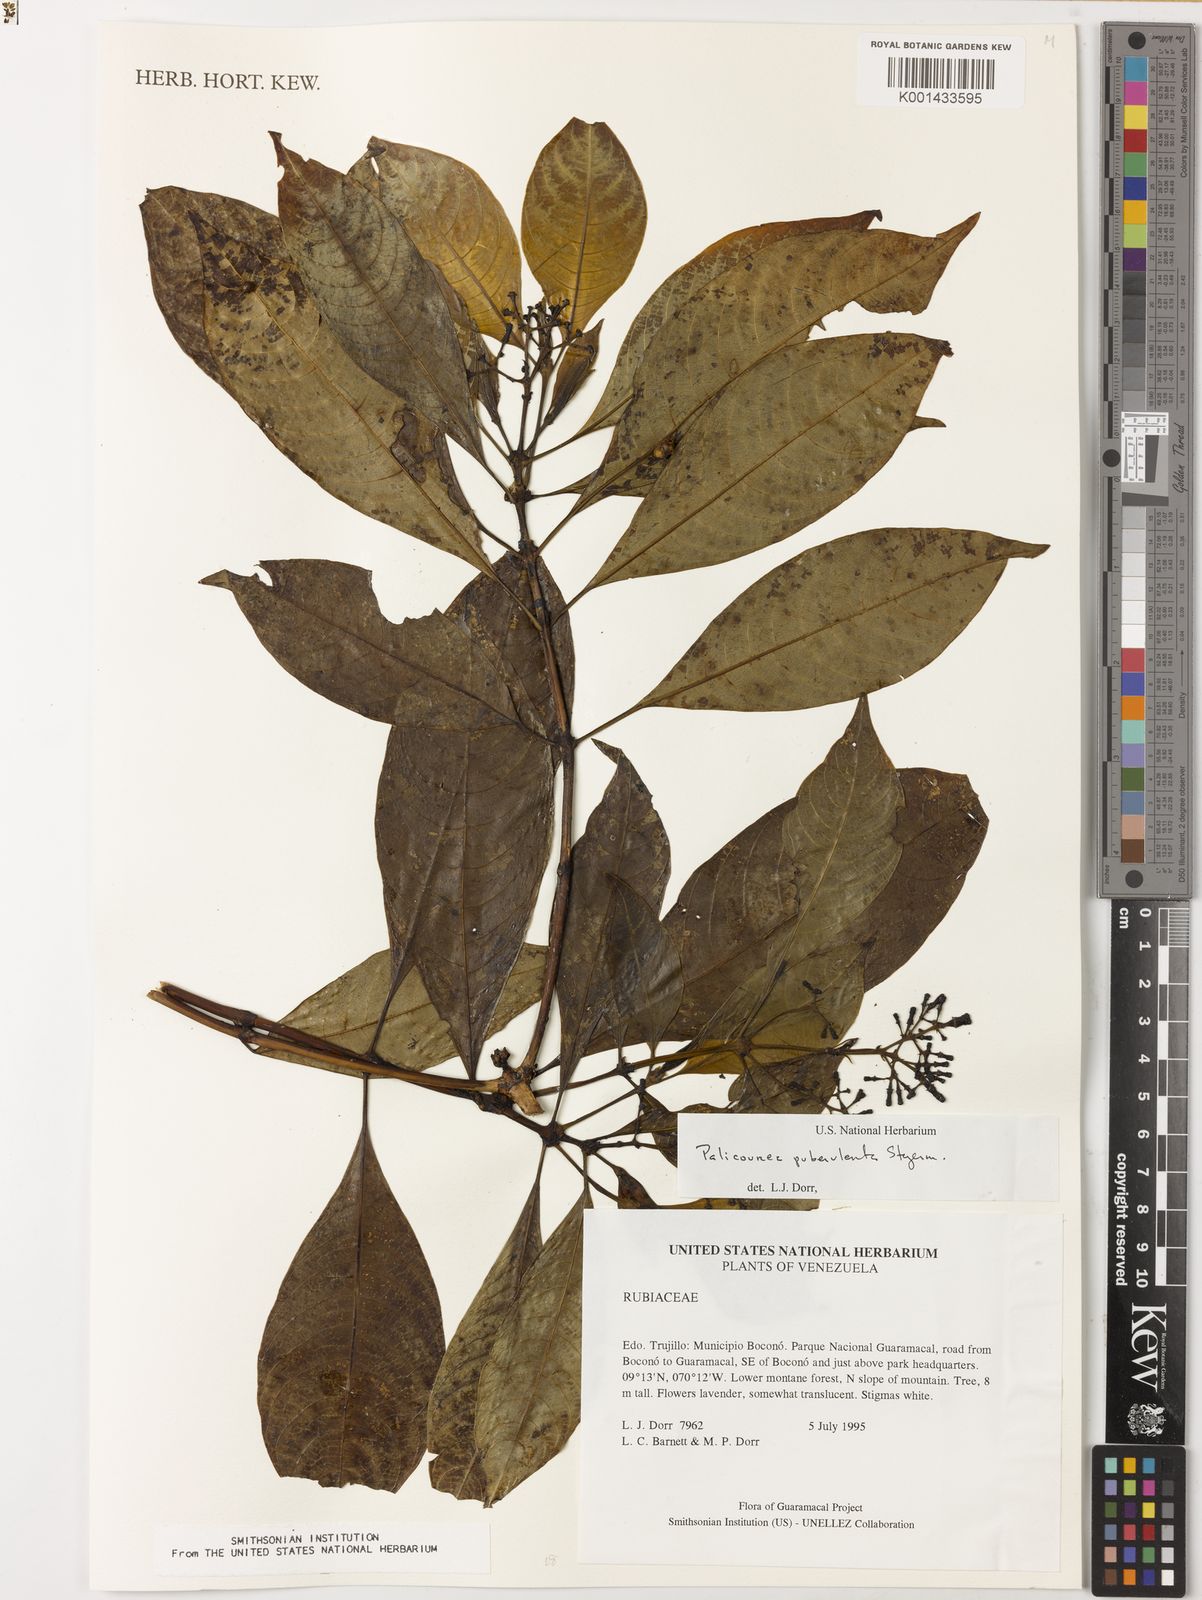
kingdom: Plantae
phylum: Tracheophyta
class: Magnoliopsida
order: Gentianales
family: Rubiaceae
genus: Palicourea
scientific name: Palicourea sulphurea
